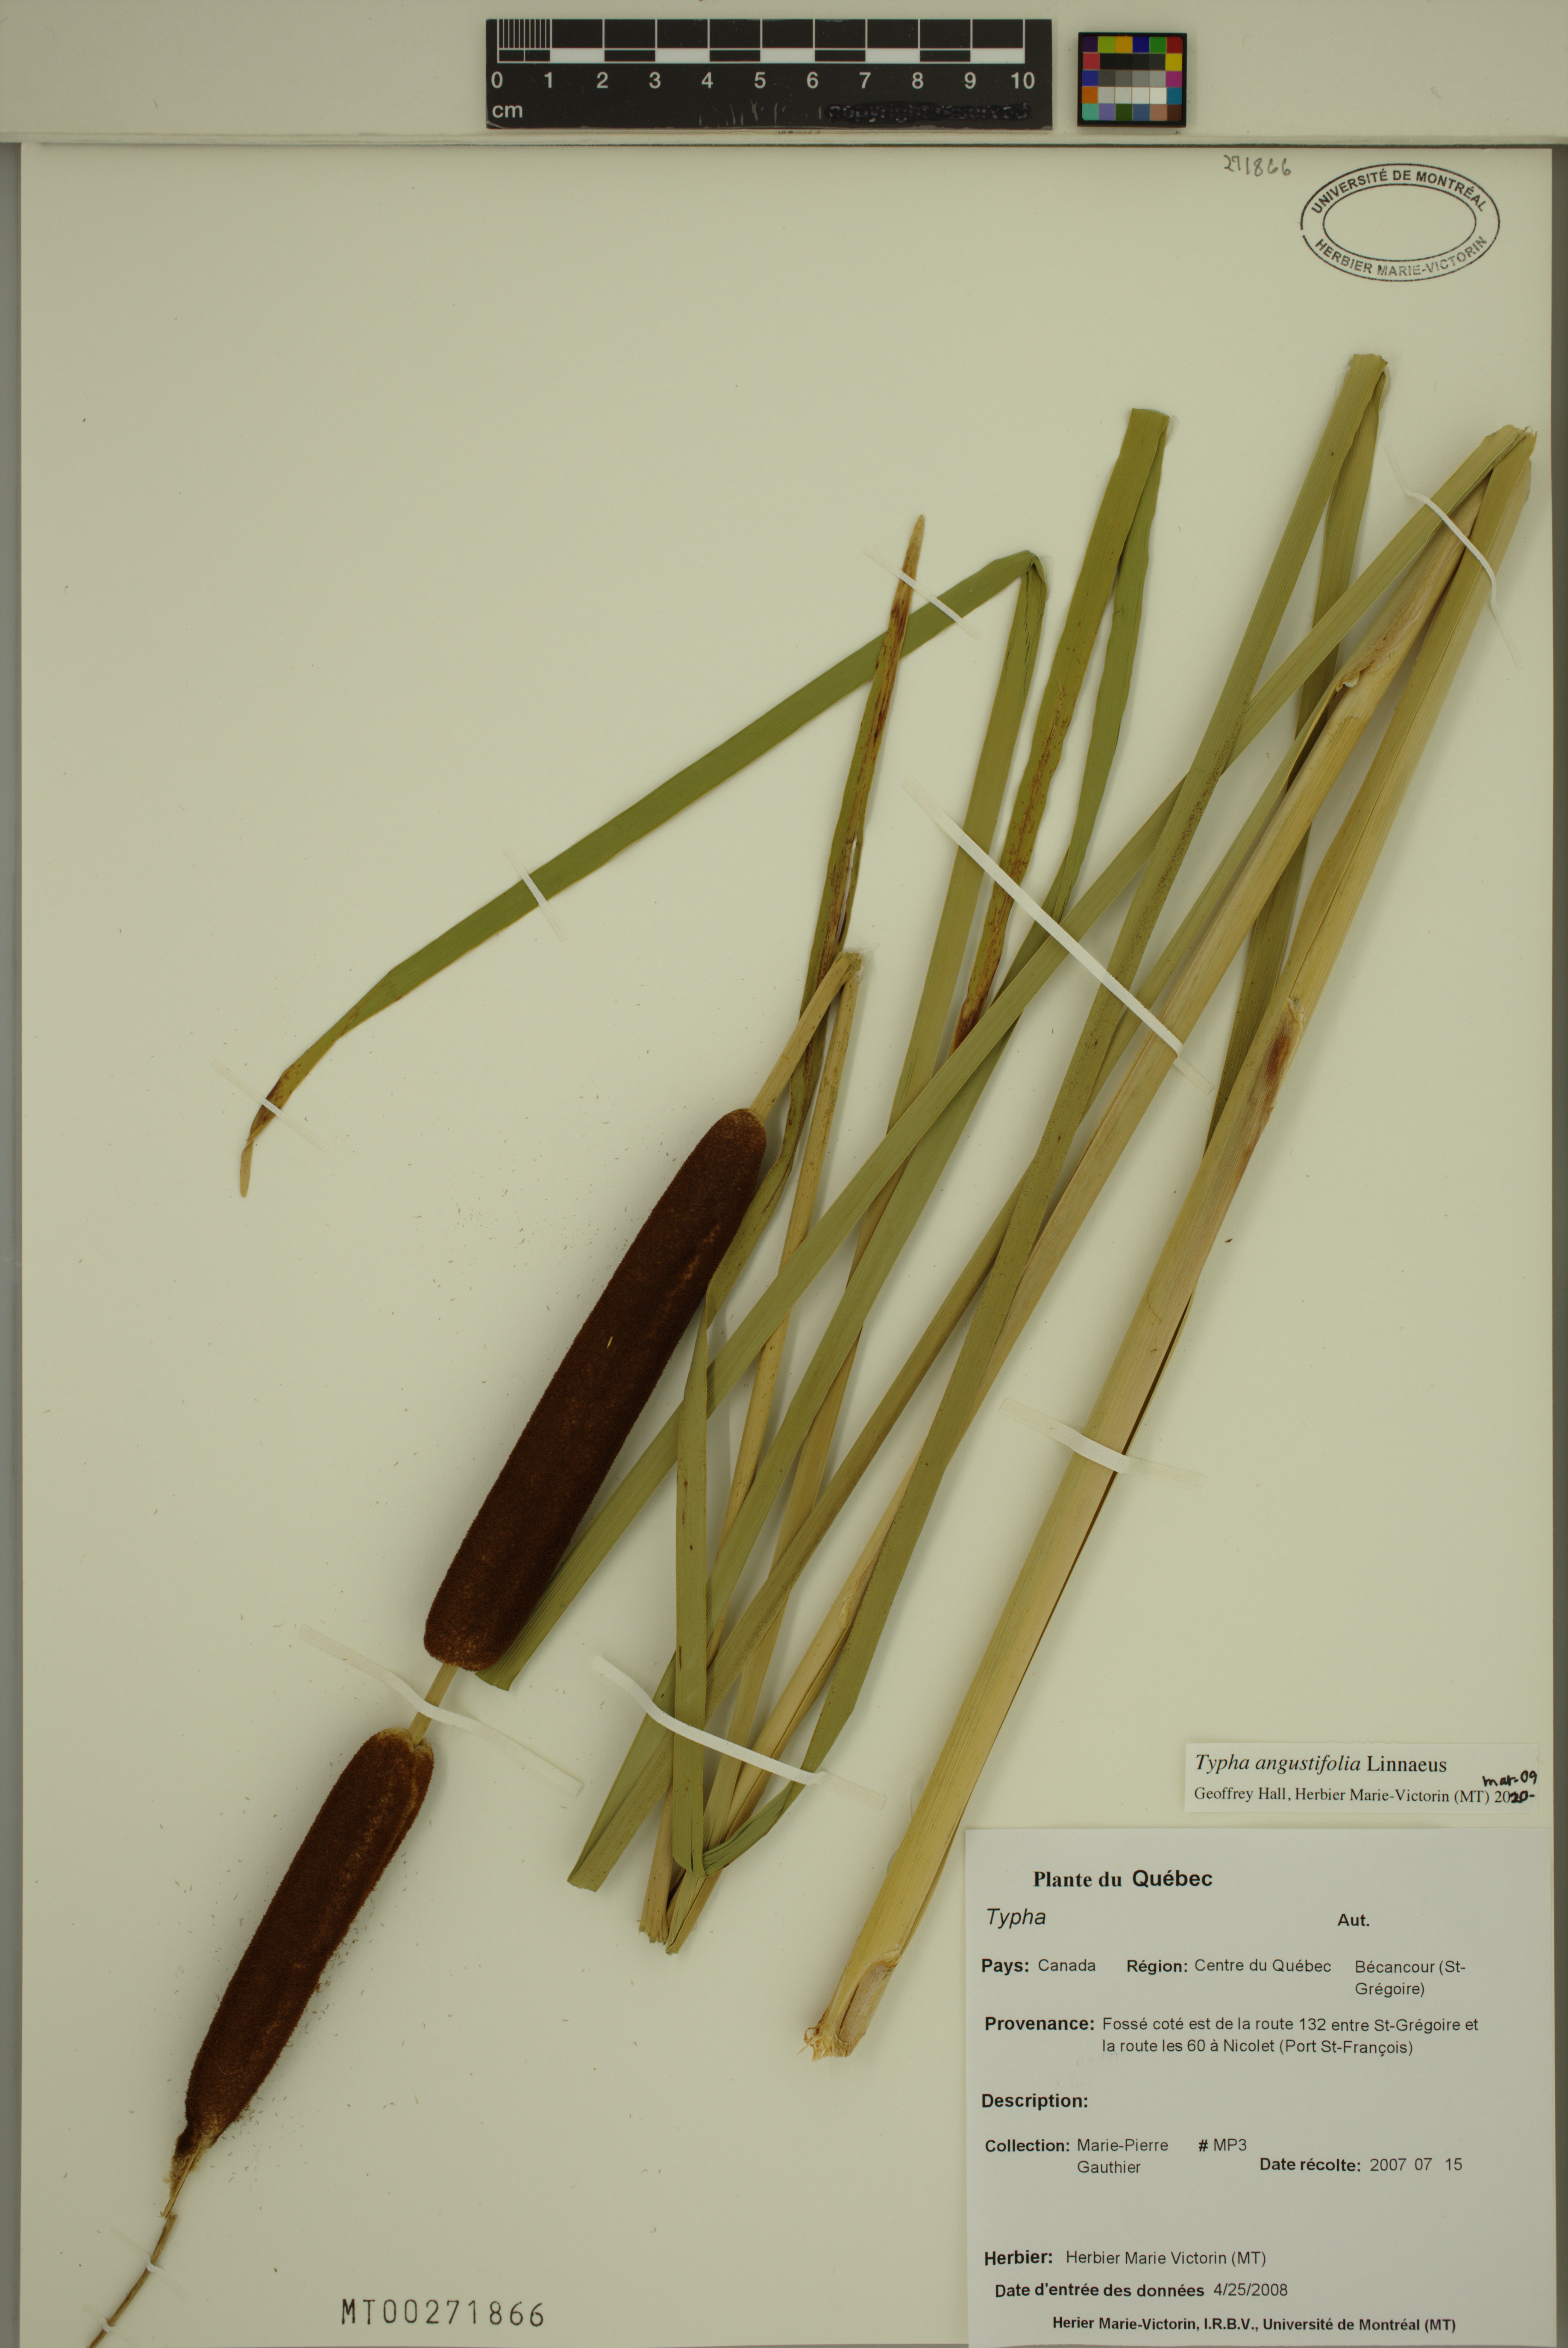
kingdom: Plantae
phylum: Tracheophyta
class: Liliopsida
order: Poales
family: Typhaceae
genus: Typha
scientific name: Typha angustifolia
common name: Lesser bulrush
